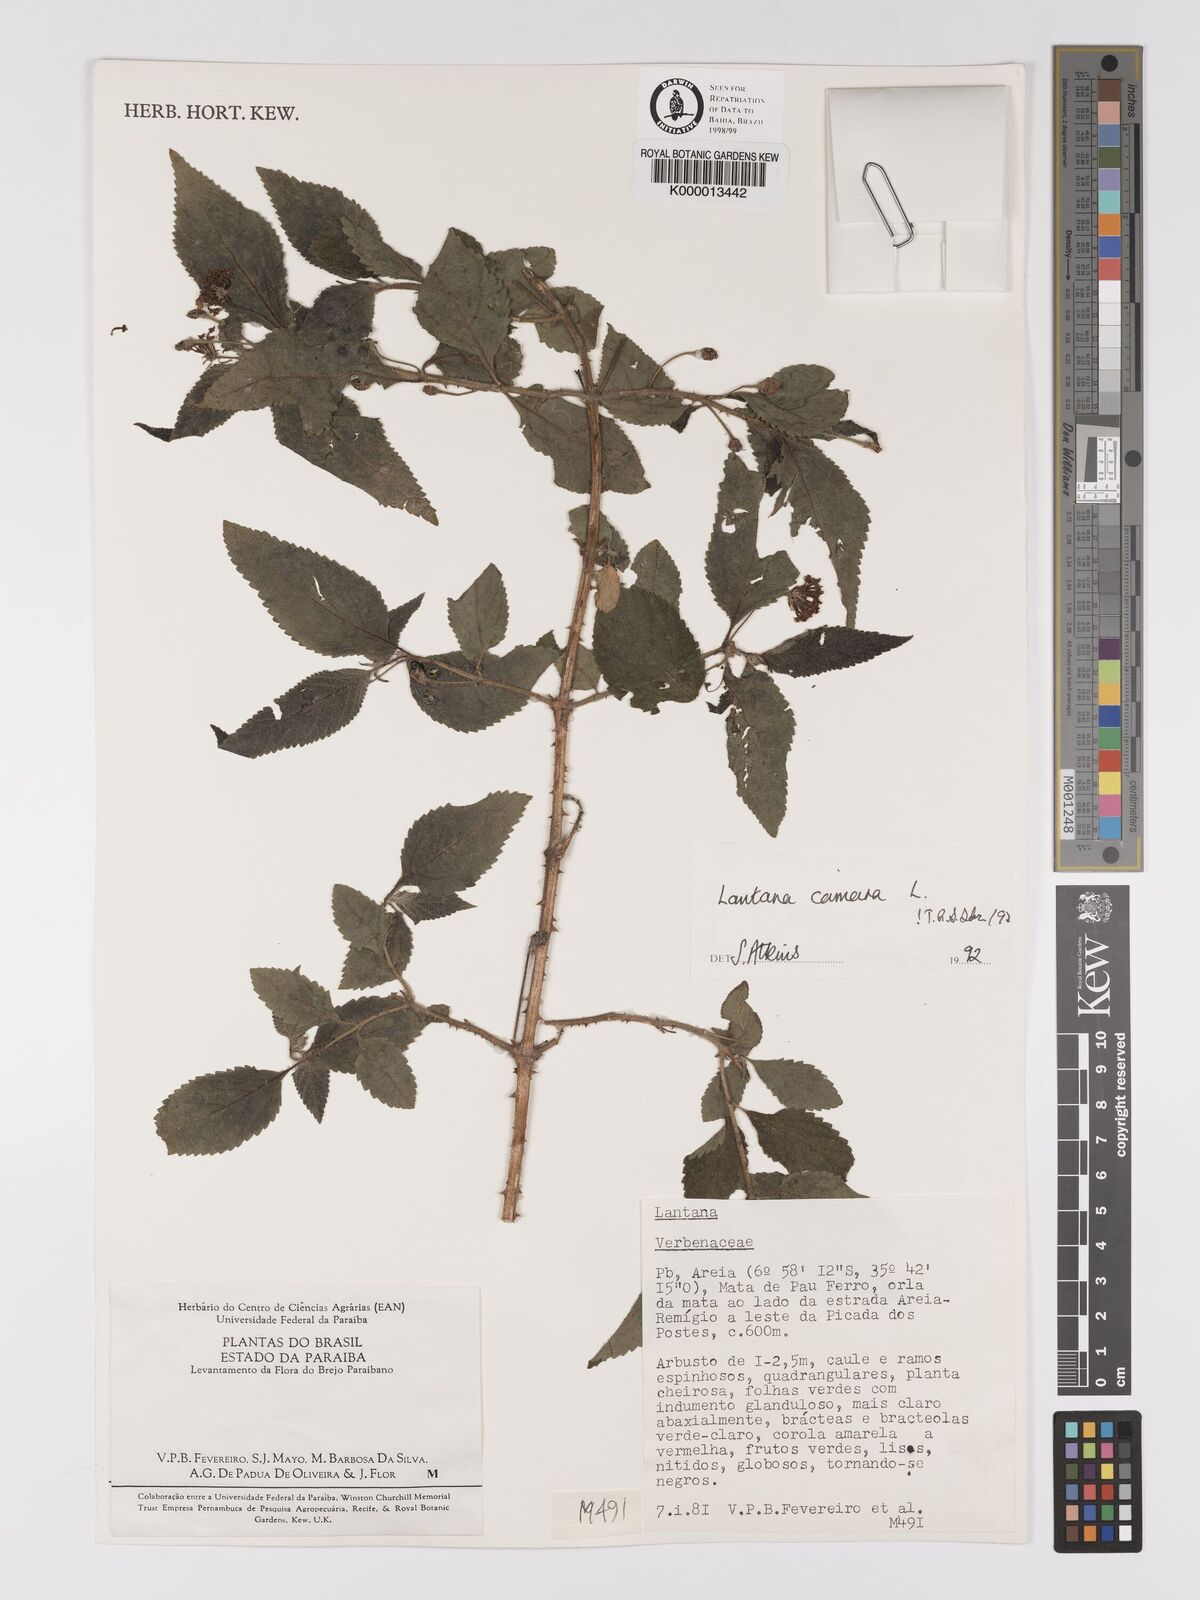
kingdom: Plantae
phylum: Tracheophyta
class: Magnoliopsida
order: Lamiales
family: Verbenaceae
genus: Lantana
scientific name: Lantana camara
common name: Lantana
